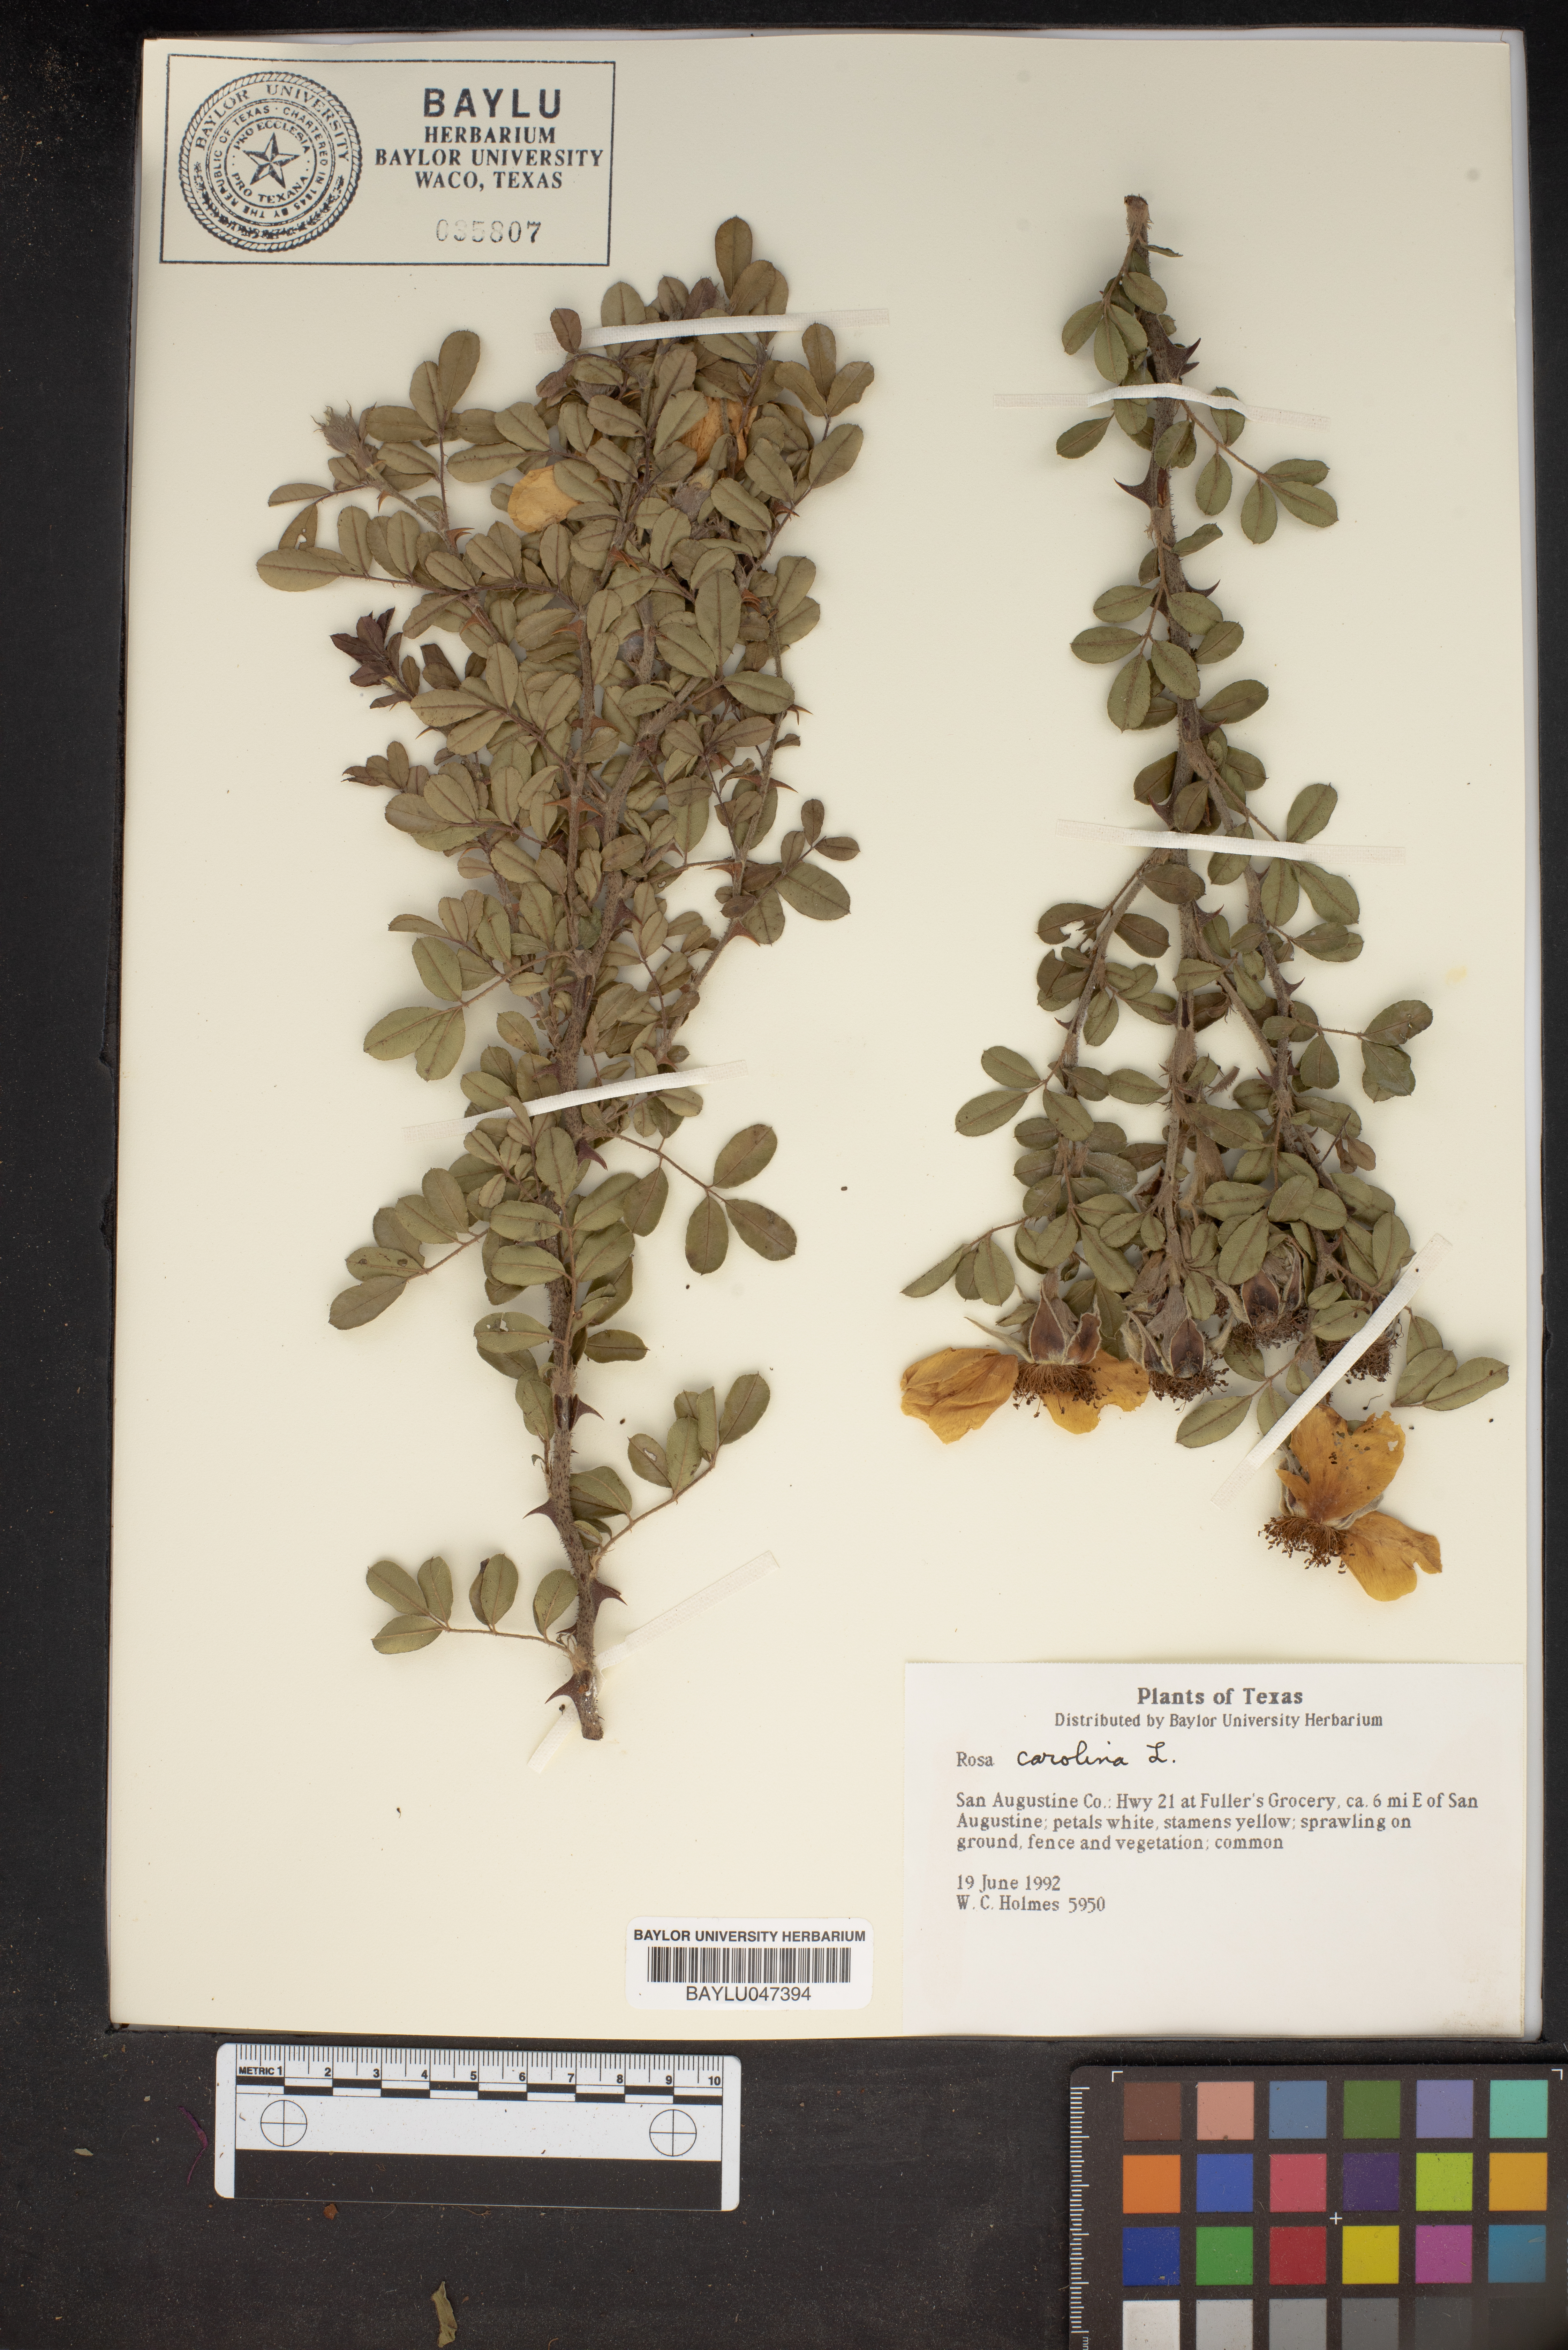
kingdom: Plantae
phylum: Tracheophyta
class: Magnoliopsida
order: Rosales
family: Rosaceae
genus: Rosa
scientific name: Rosa carolina
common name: Pasture rose
